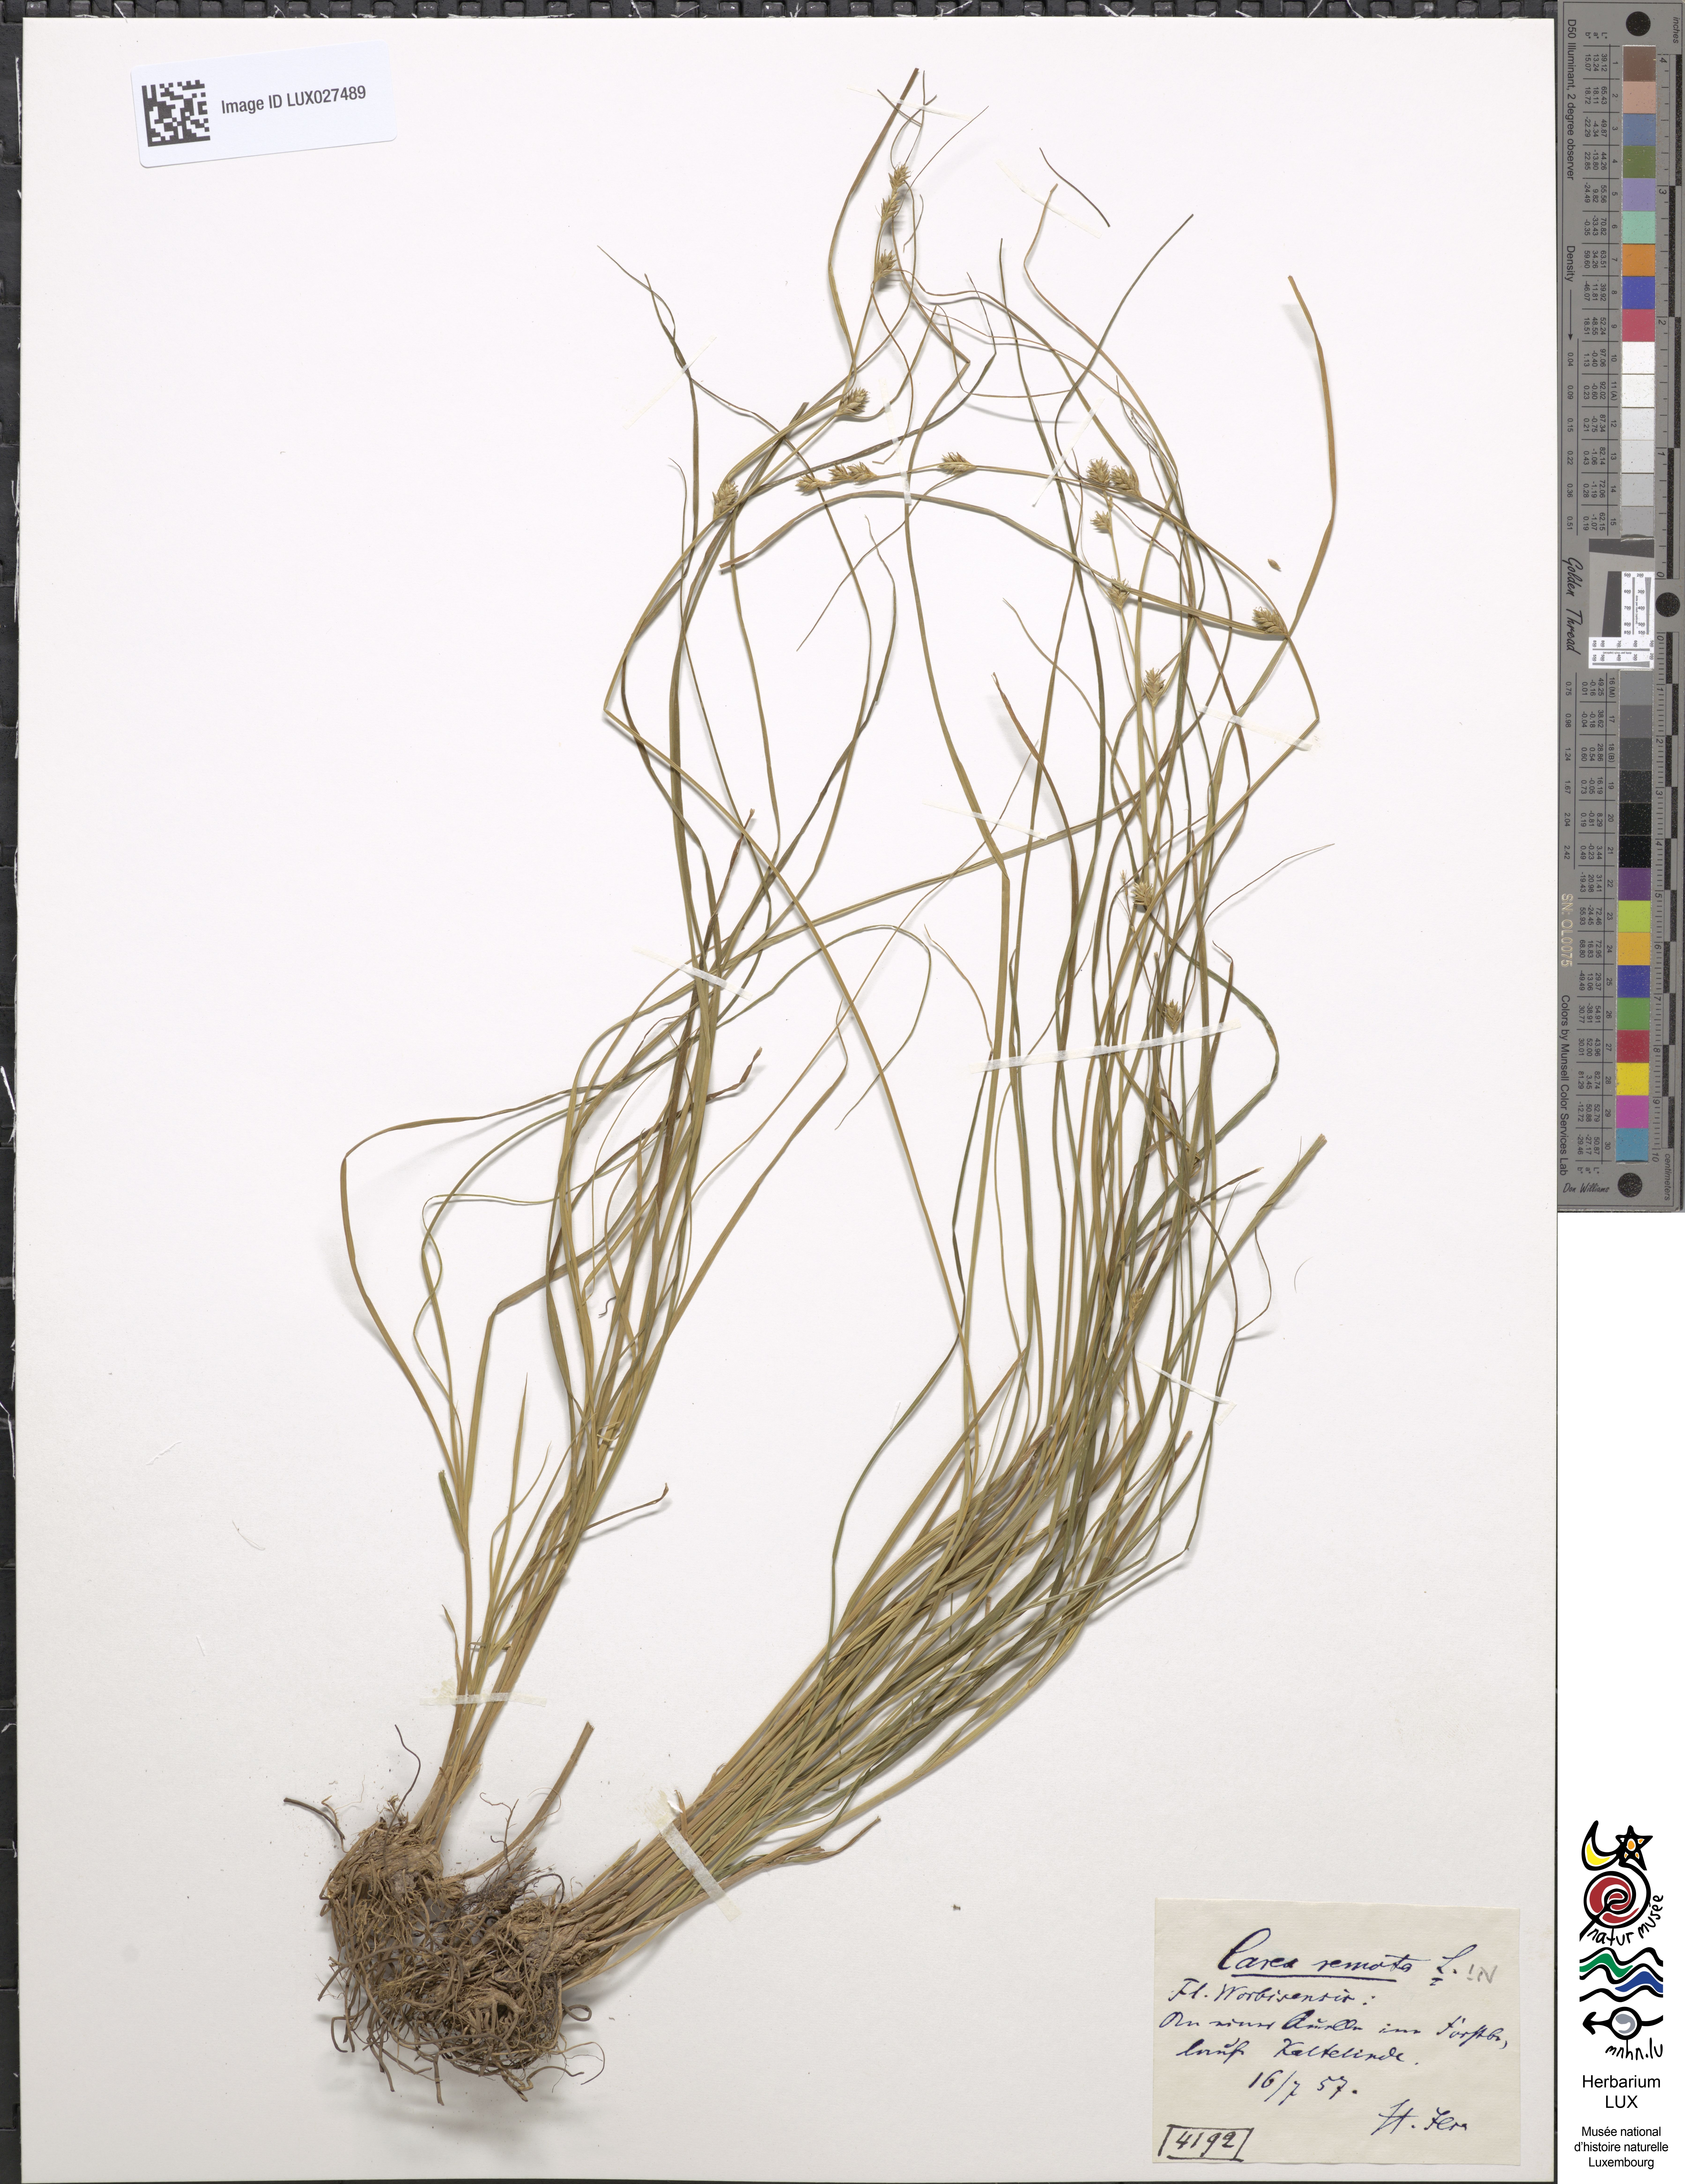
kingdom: Plantae
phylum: Tracheophyta
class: Liliopsida
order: Poales
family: Cyperaceae
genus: Carex
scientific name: Carex remota
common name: Remote sedge
